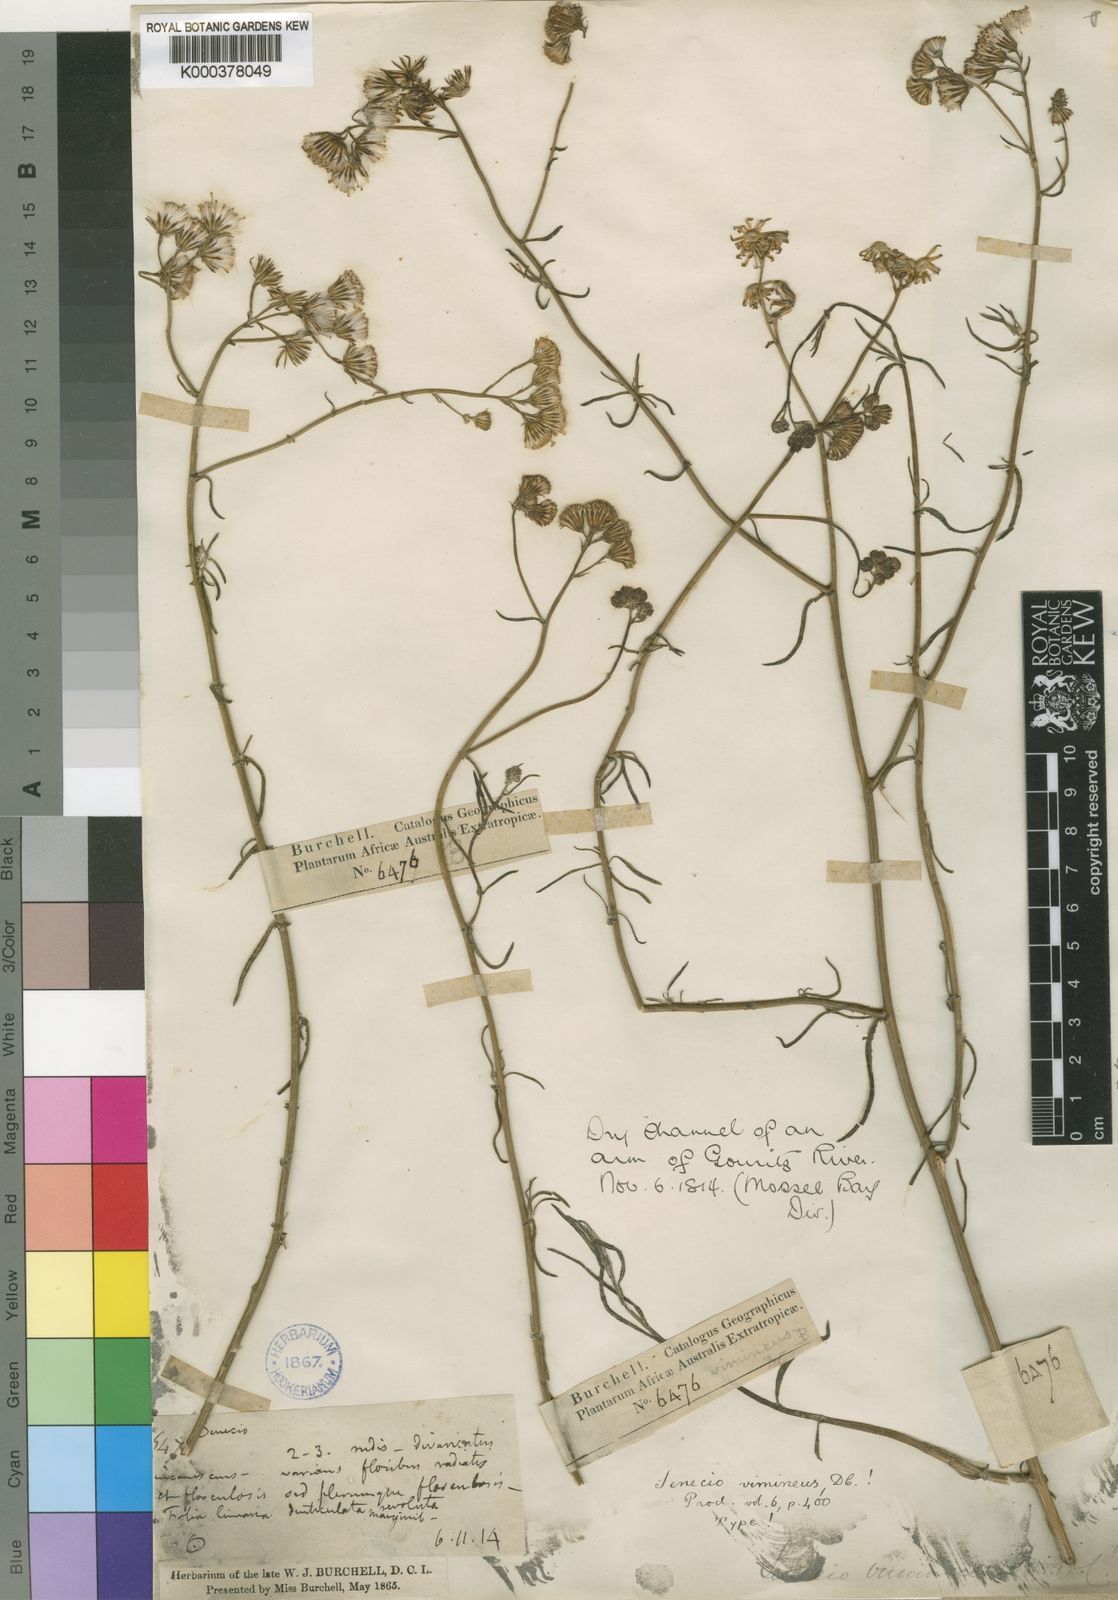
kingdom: Plantae
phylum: Tracheophyta
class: Magnoliopsida
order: Asterales
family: Asteraceae
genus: Senecio
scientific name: Senecio vimineus
